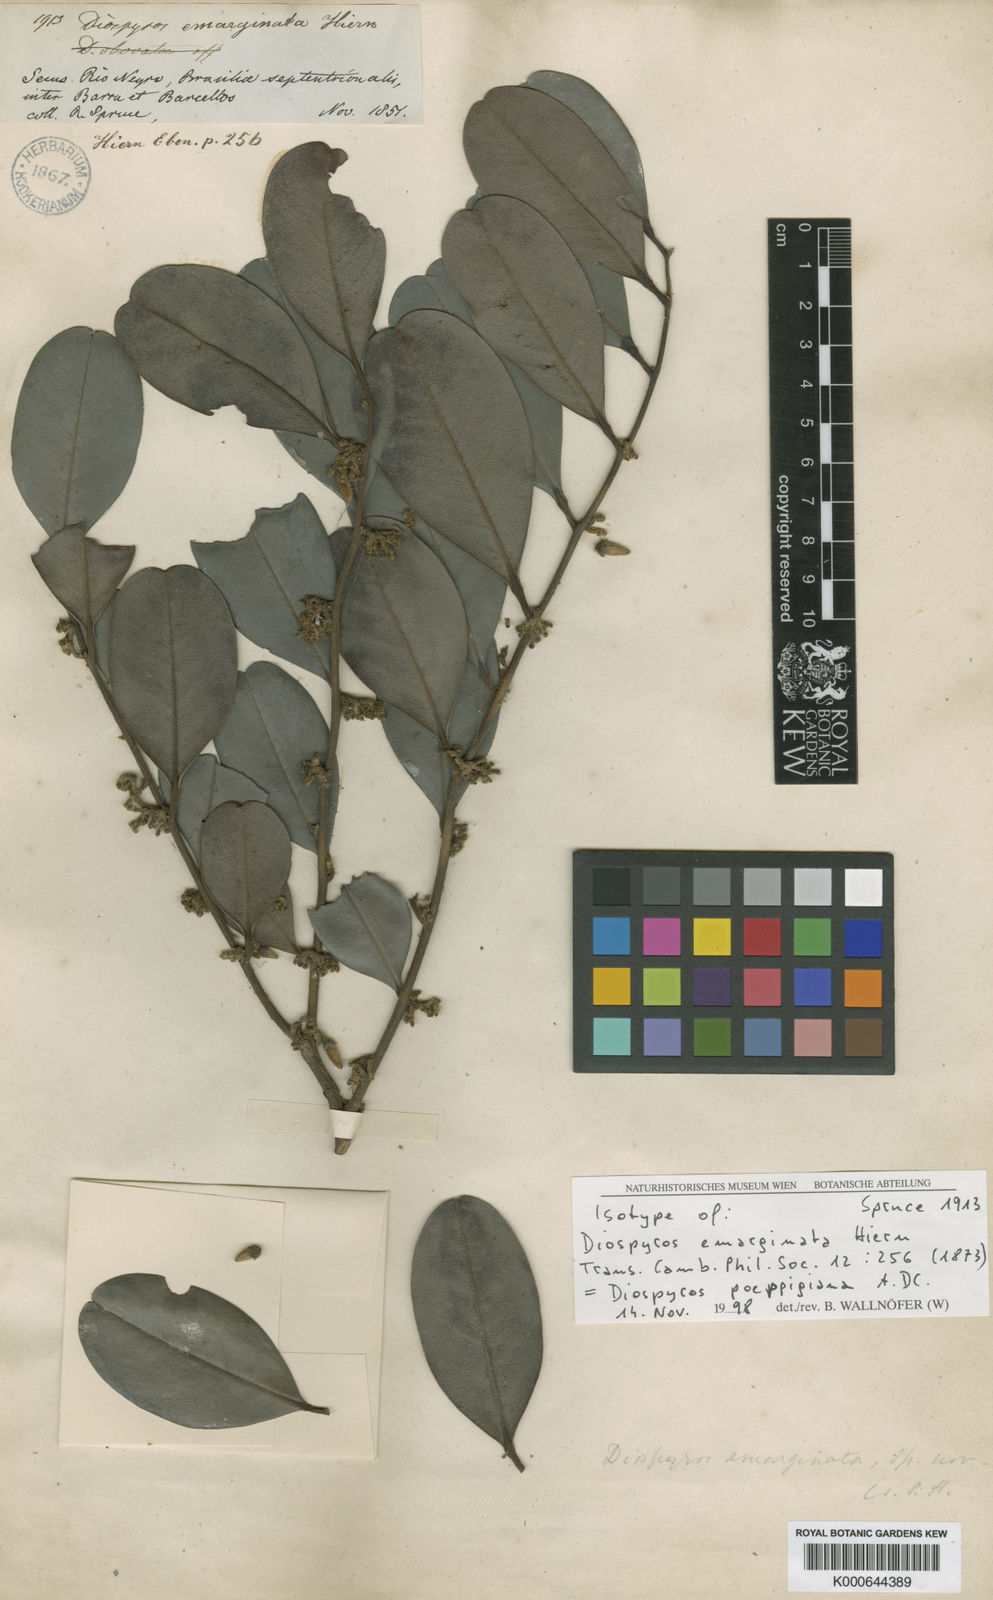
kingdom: Plantae
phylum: Tracheophyta
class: Magnoliopsida
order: Ericales
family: Ebenaceae
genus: Diospyros
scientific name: Diospyros poeppigiana
